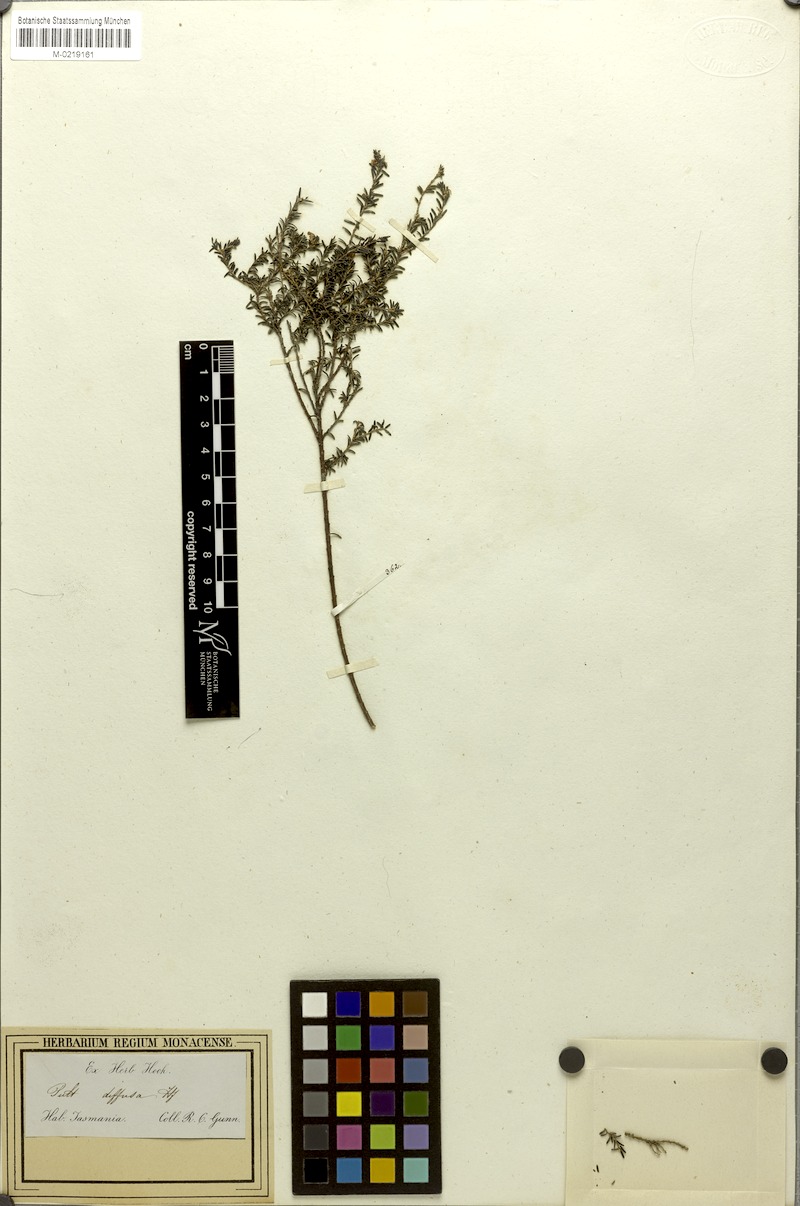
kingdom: Plantae
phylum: Tracheophyta
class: Magnoliopsida
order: Fabales
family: Fabaceae
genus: Phyllota
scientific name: Phyllota diffusa
